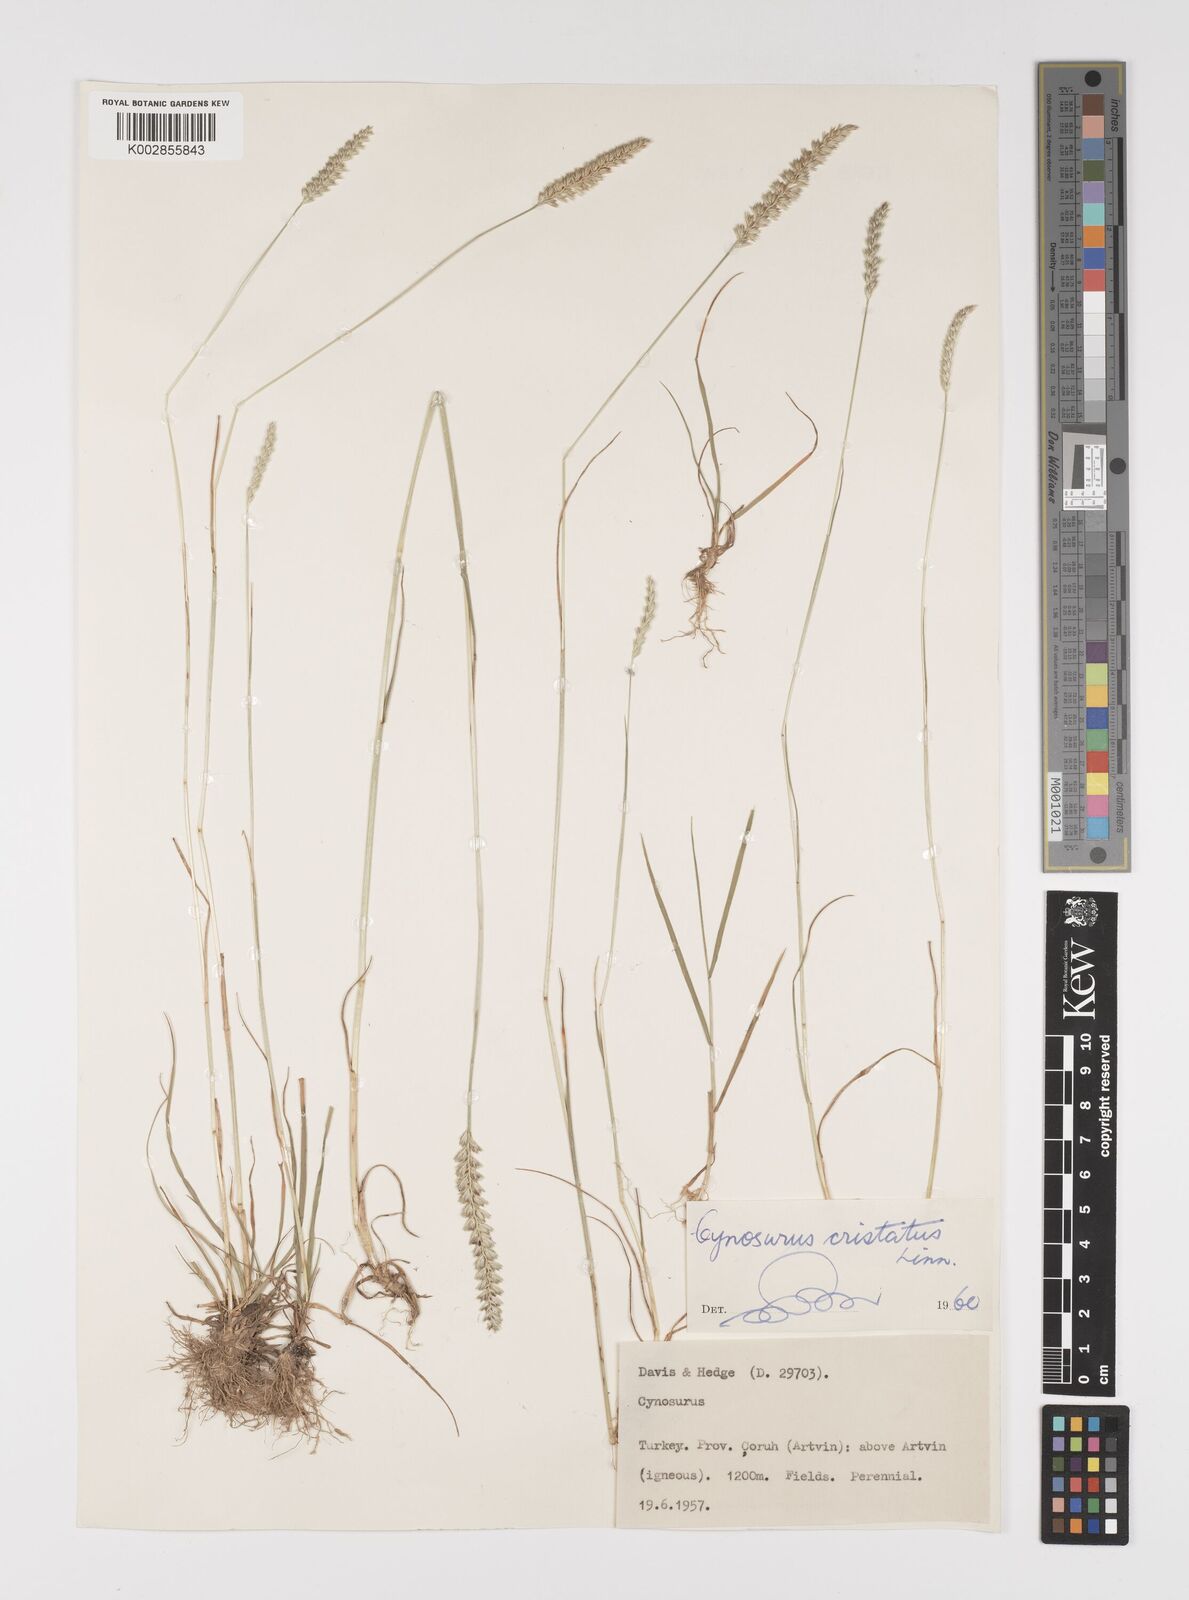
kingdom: Plantae
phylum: Tracheophyta
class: Liliopsida
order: Poales
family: Poaceae
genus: Cynosurus
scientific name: Cynosurus cristatus
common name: Crested dog's-tail
